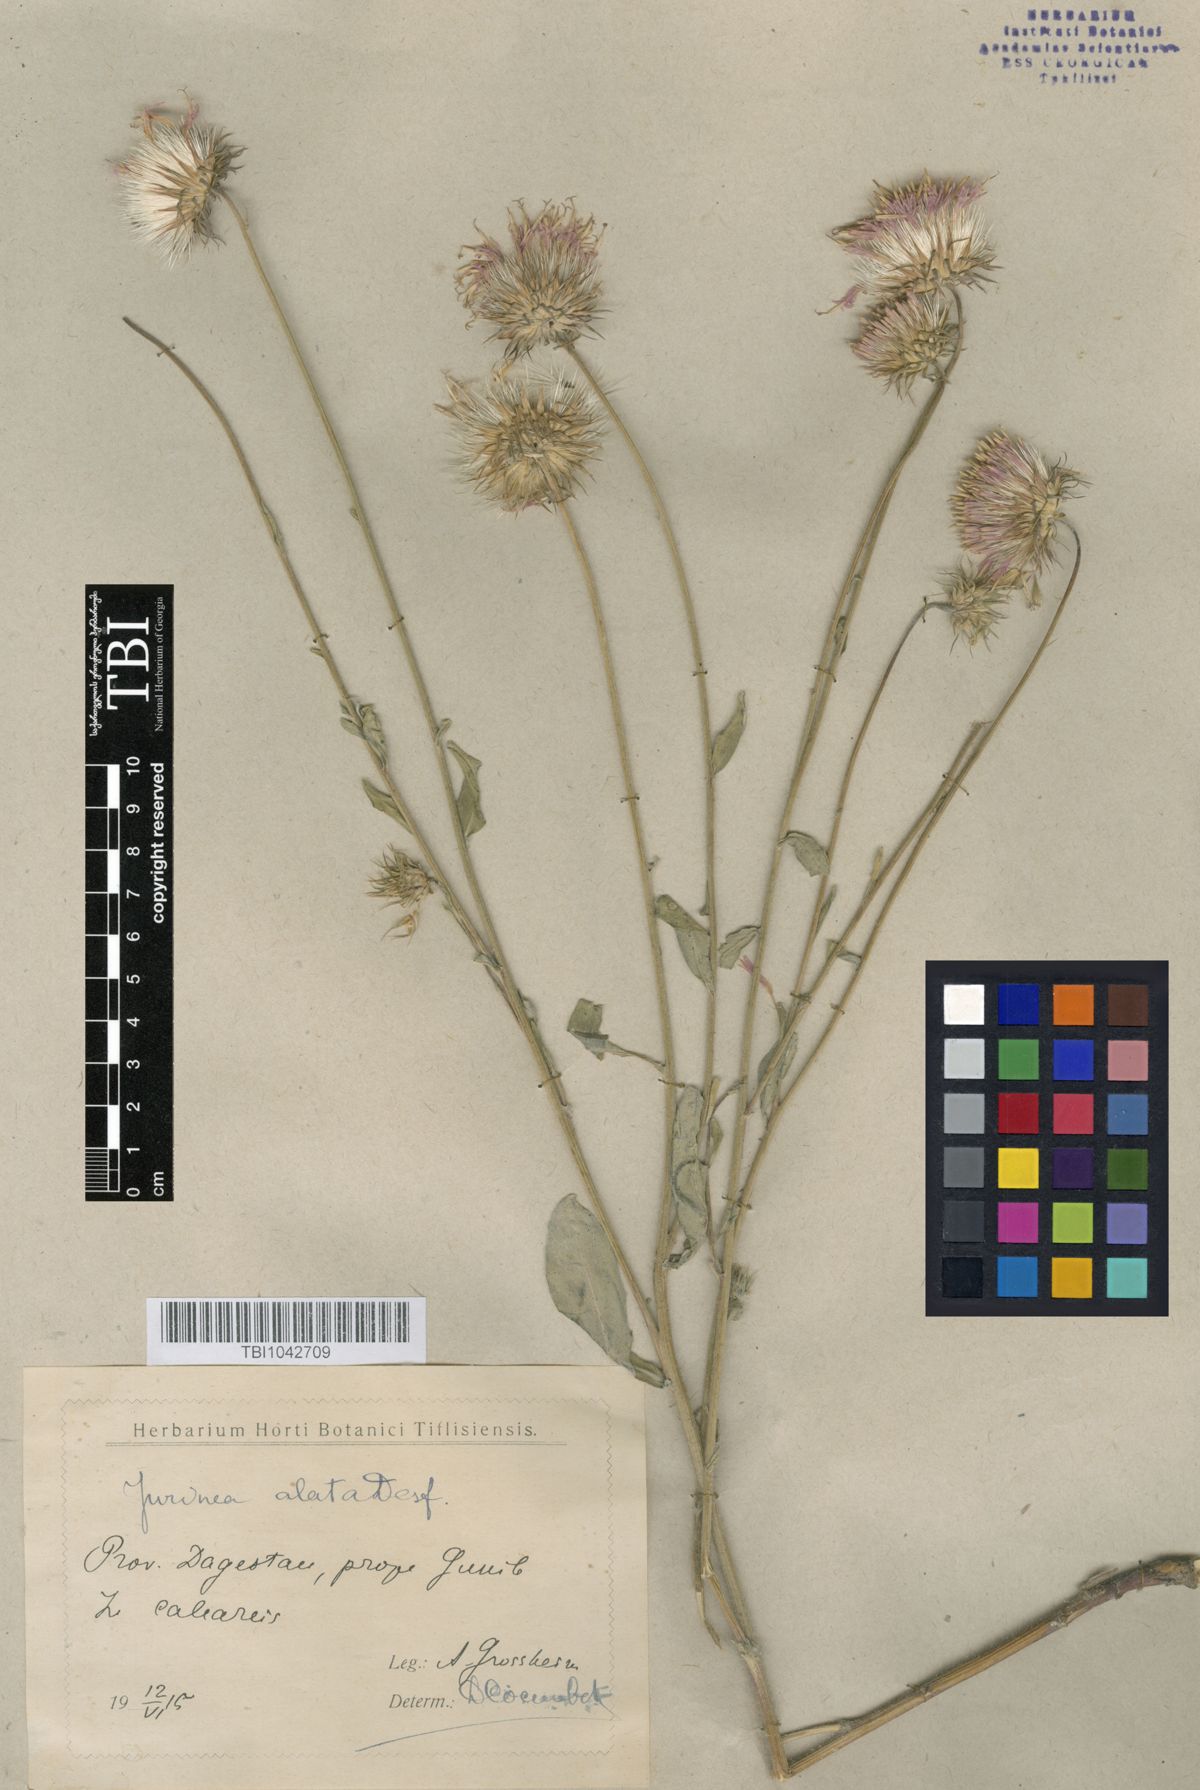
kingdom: Plantae
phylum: Tracheophyta
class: Magnoliopsida
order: Asterales
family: Asteraceae
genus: Jurinea
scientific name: Jurinea alata
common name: Winged jurinea
